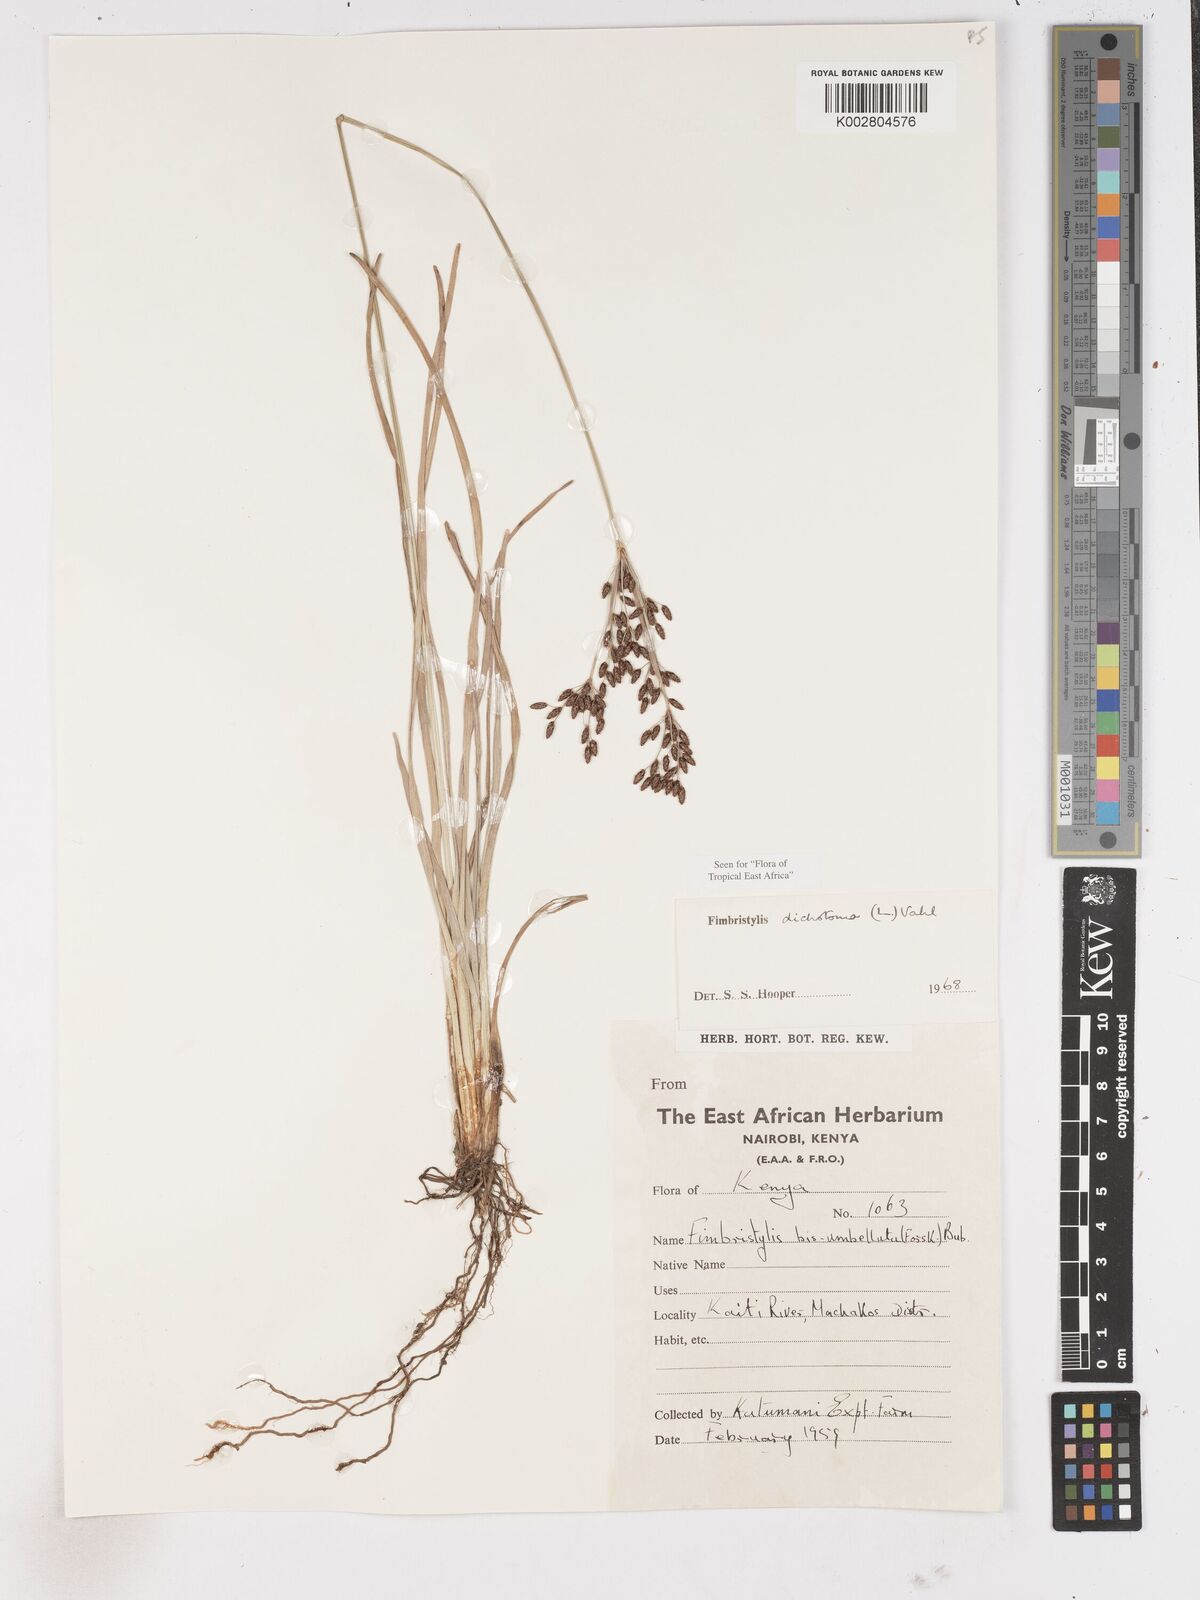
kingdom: Plantae
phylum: Tracheophyta
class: Liliopsida
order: Poales
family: Cyperaceae
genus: Fimbristylis
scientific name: Fimbristylis dichotoma
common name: Forked fimbry
